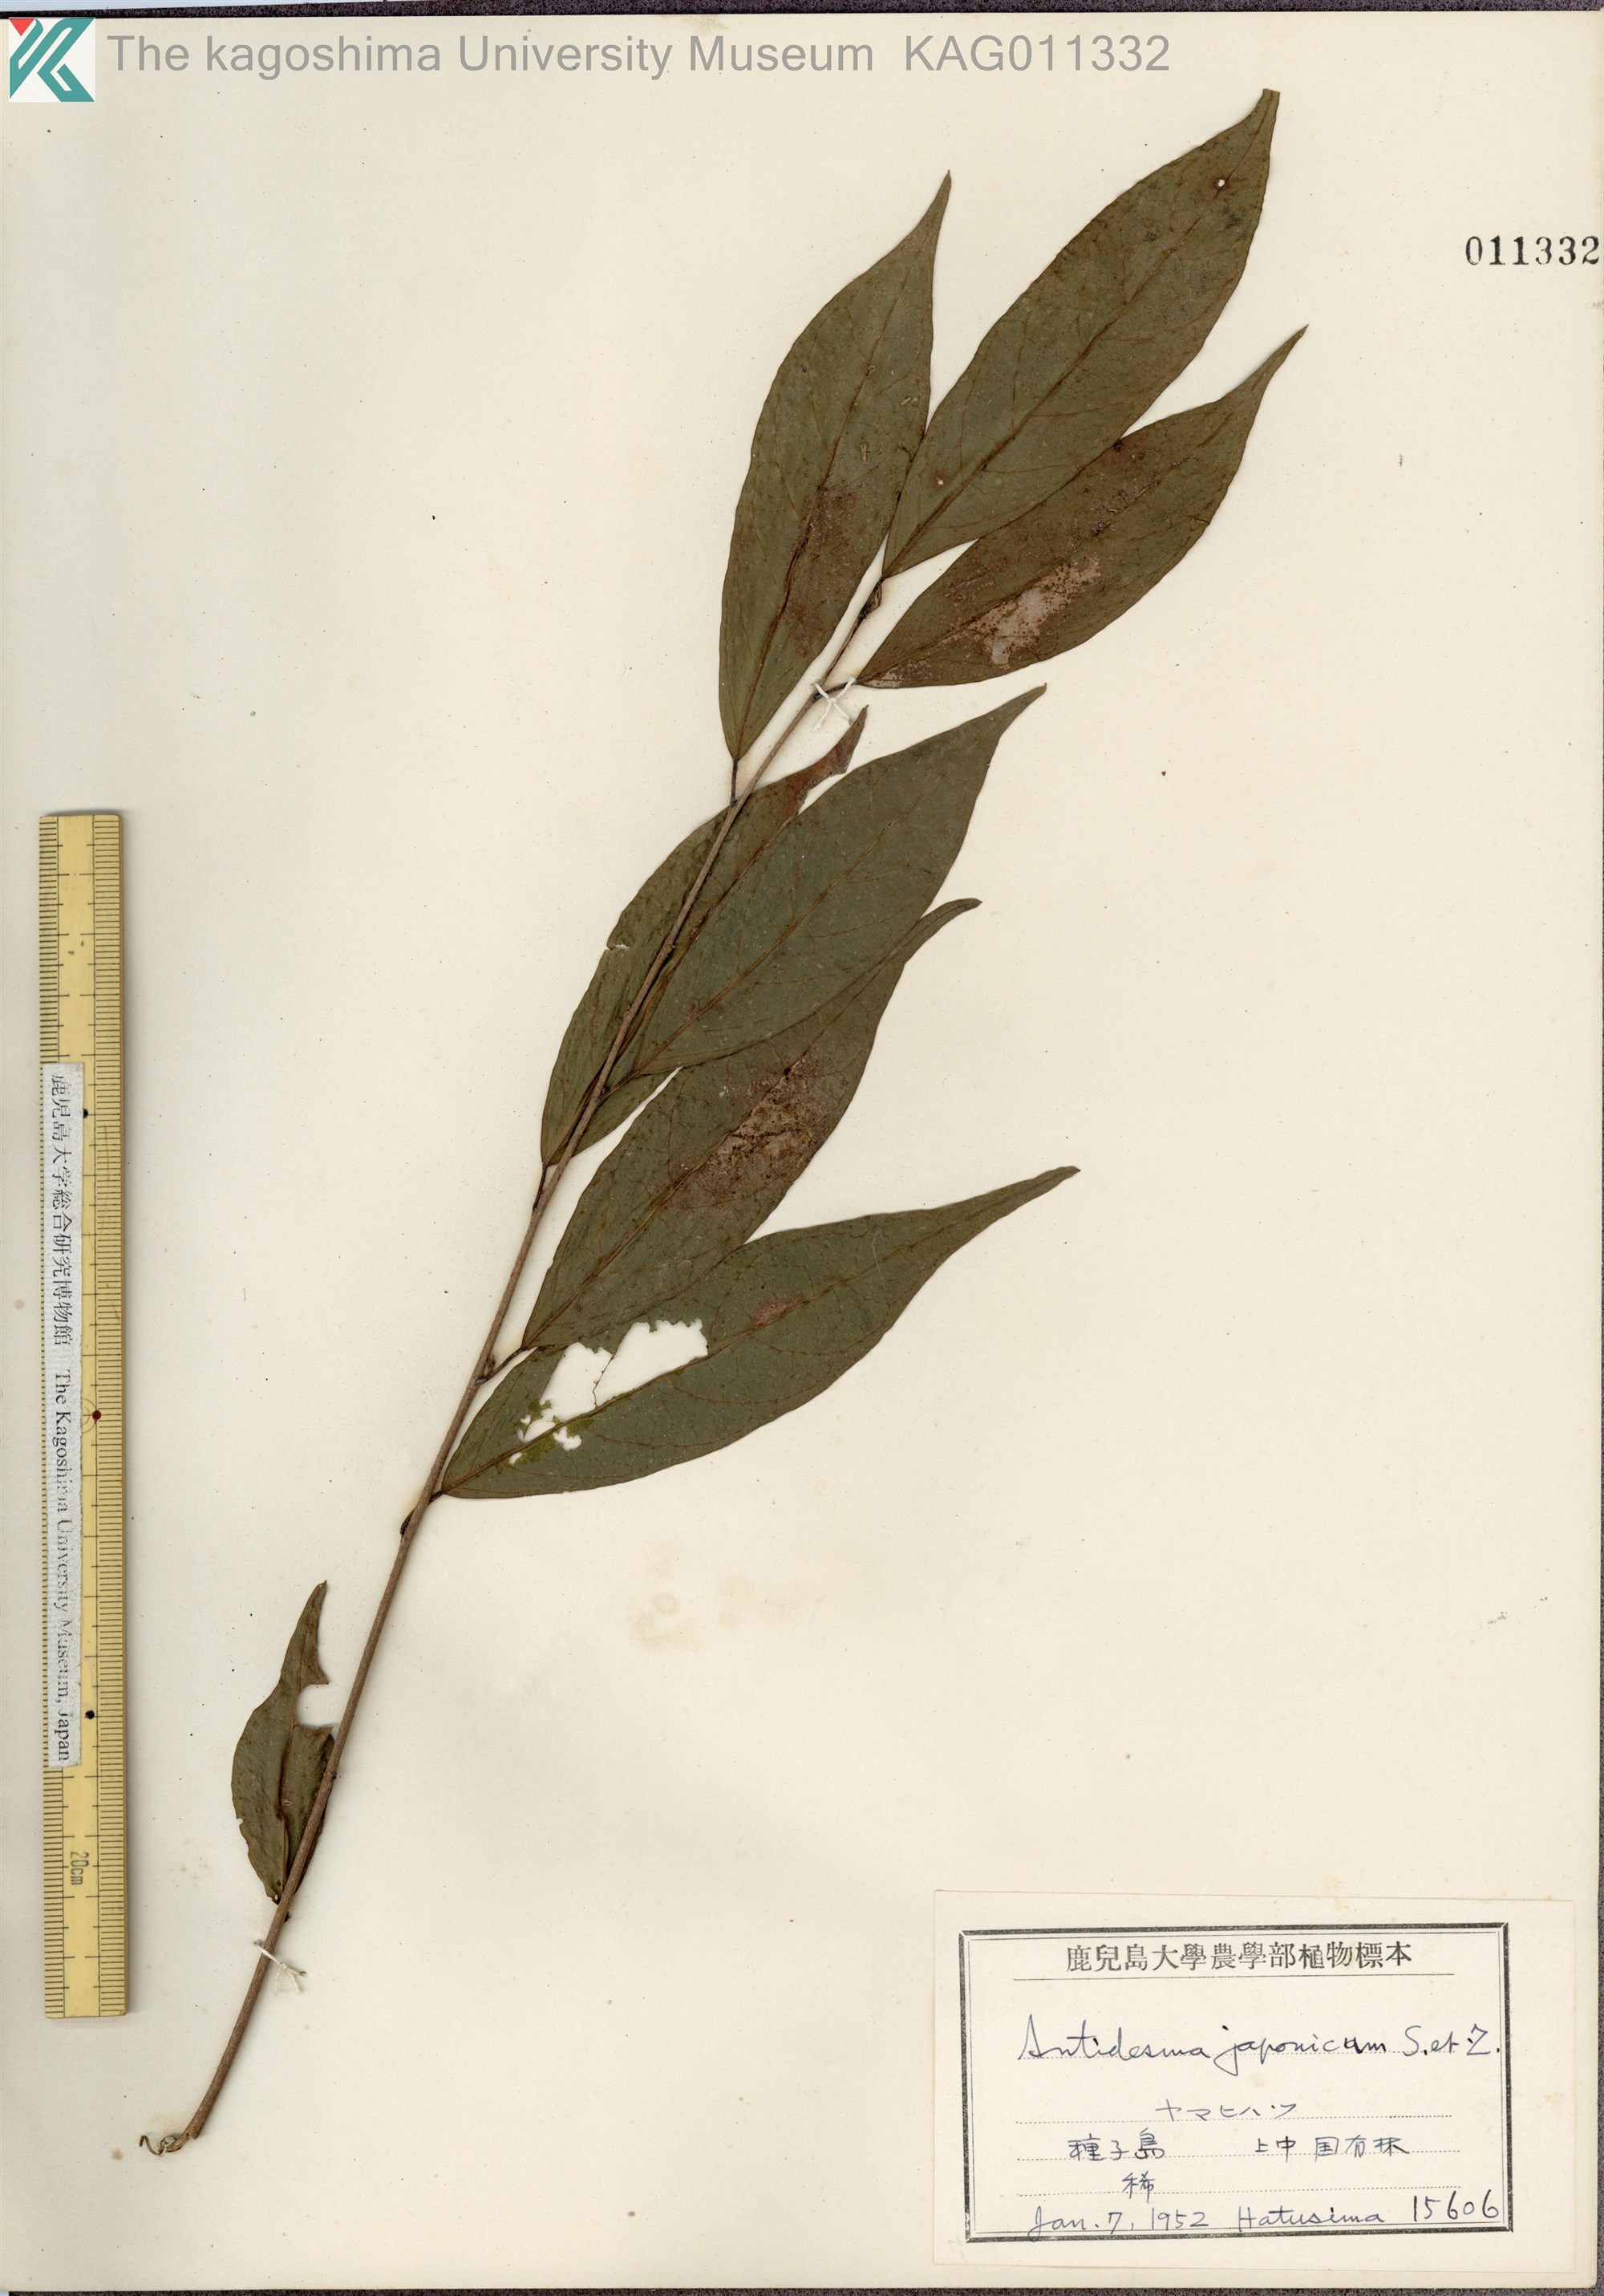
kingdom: Plantae
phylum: Tracheophyta
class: Magnoliopsida
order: Malpighiales
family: Phyllanthaceae
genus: Antidesma
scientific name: Antidesma japonicum
